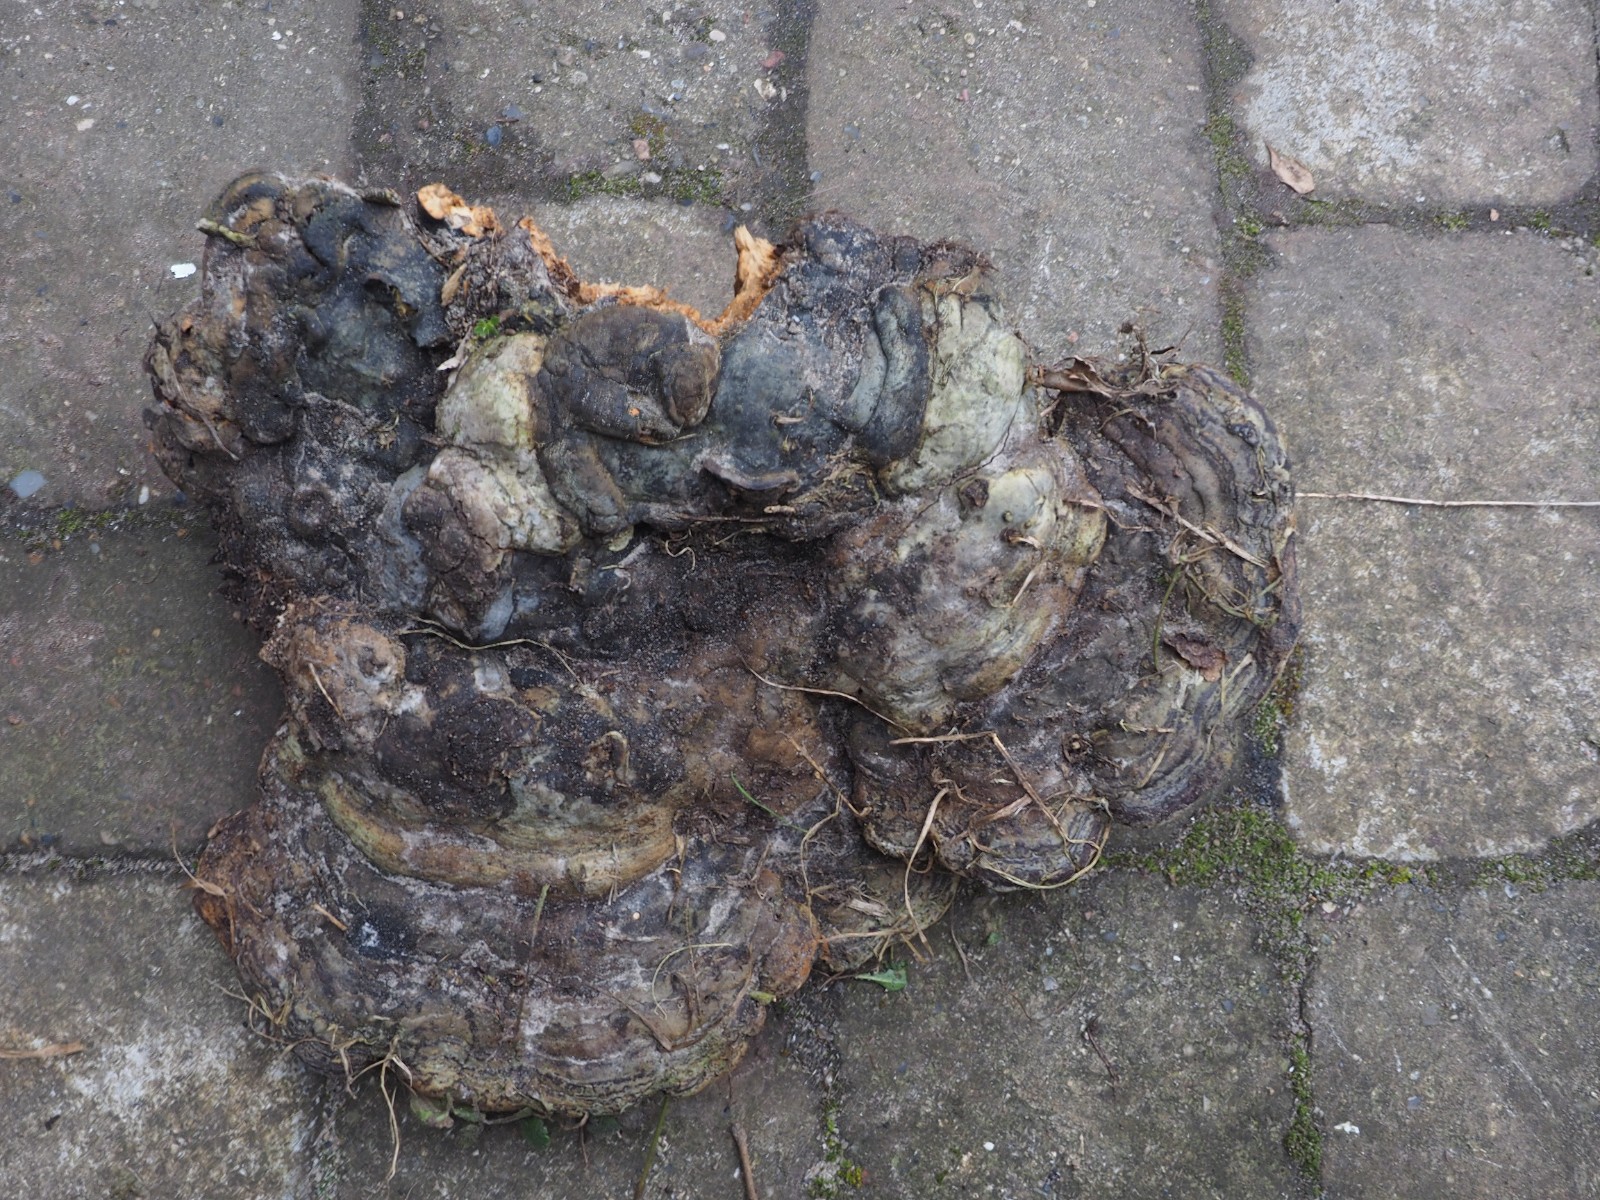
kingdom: Fungi
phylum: Basidiomycota
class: Agaricomycetes
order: Polyporales
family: Polyporaceae
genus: Fomes
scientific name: Fomes fomentarius
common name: tøndersvamp
